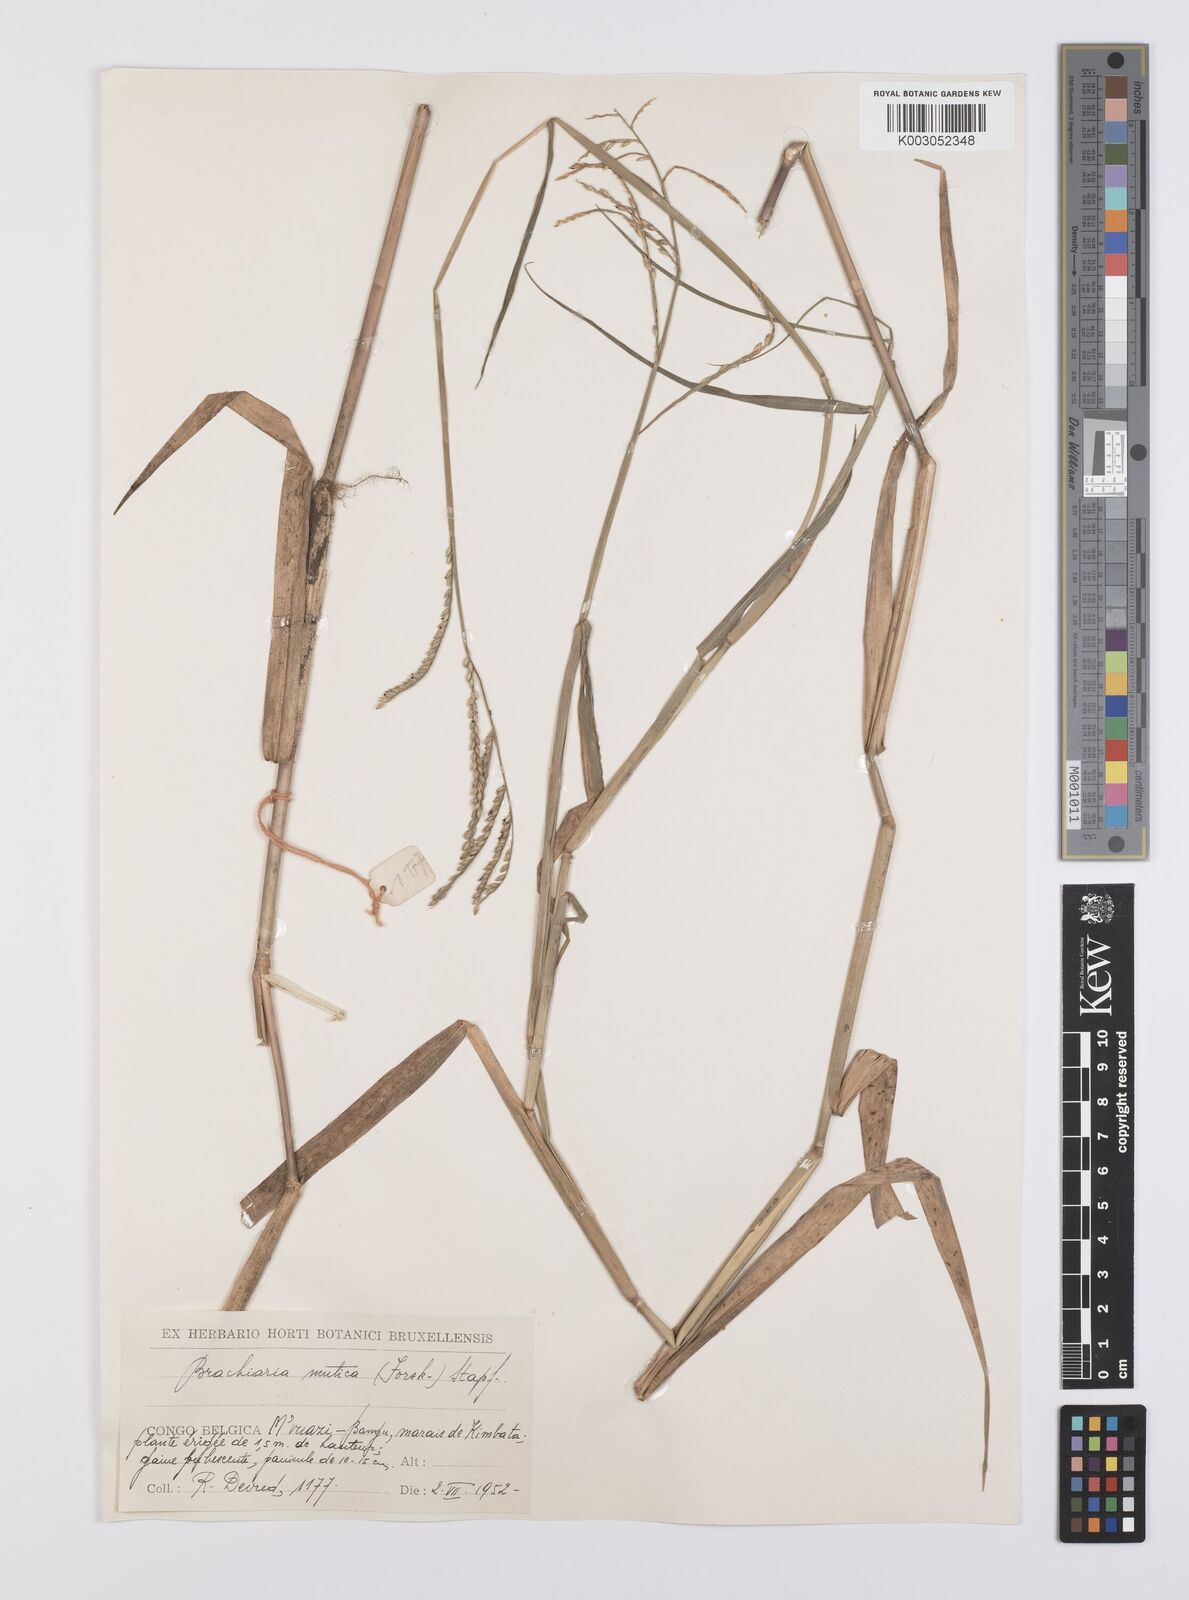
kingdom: Plantae
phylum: Tracheophyta
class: Liliopsida
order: Poales
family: Poaceae
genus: Urochloa
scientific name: Urochloa arrecta
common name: African signalgrass
